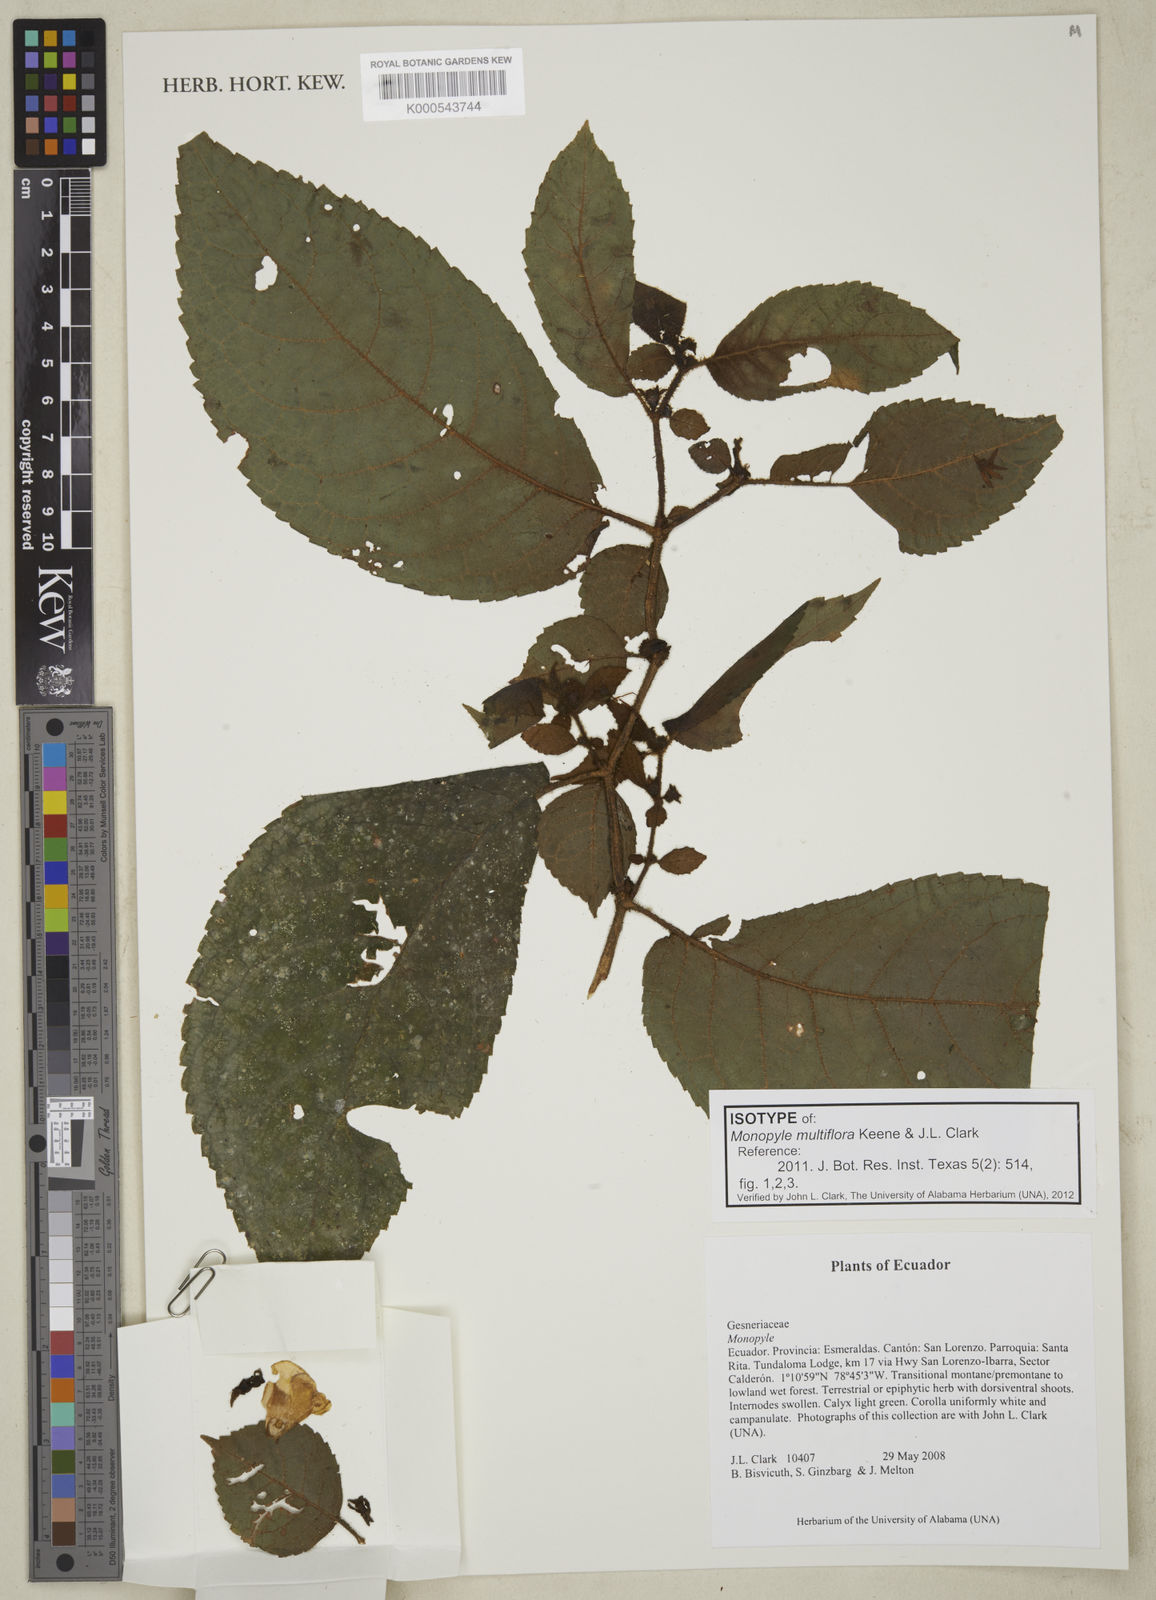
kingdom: Plantae
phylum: Tracheophyta
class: Magnoliopsida
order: Lamiales
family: Gesneriaceae
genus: Monopyle
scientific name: Monopyle multiflora
